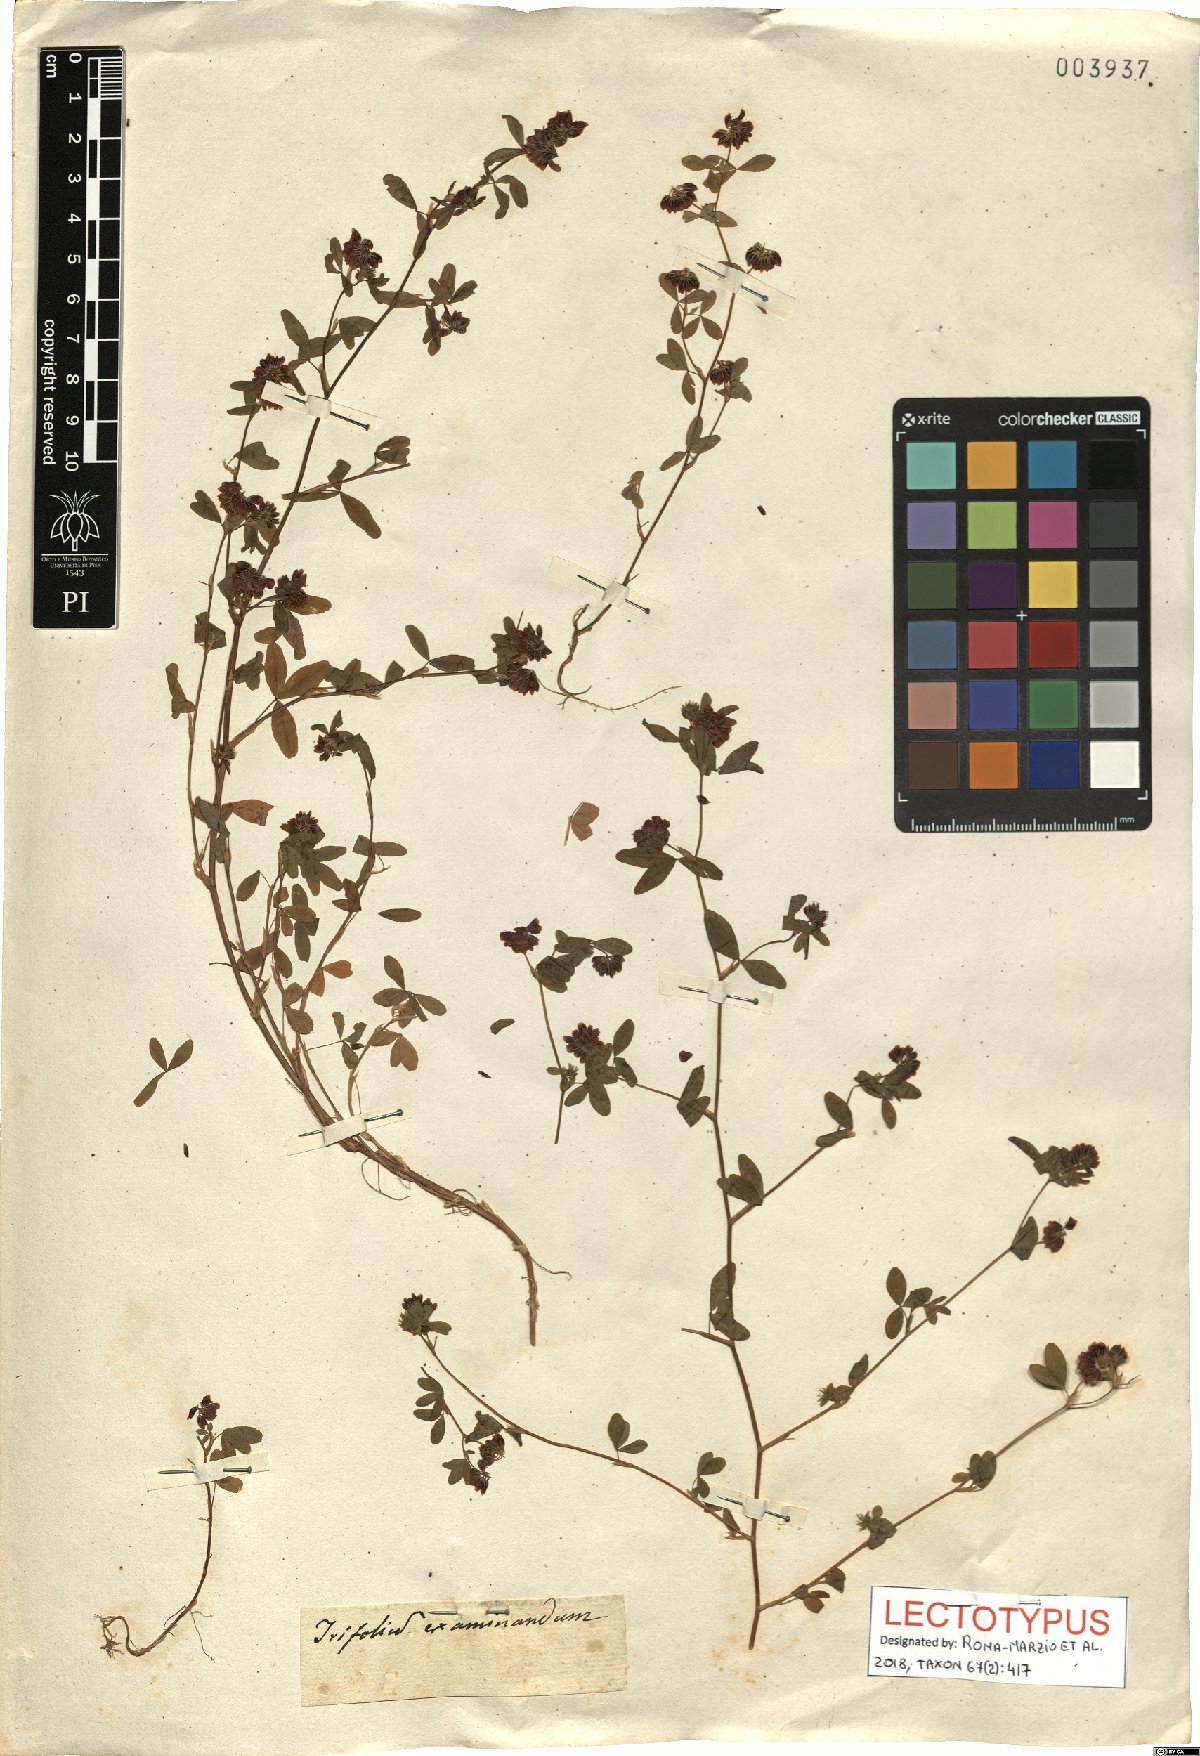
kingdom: Plantae
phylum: Tracheophyta
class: Magnoliopsida
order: Fabales
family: Fabaceae
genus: Trifolium
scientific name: Trifolium sebastiani
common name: Sebastian's clover
